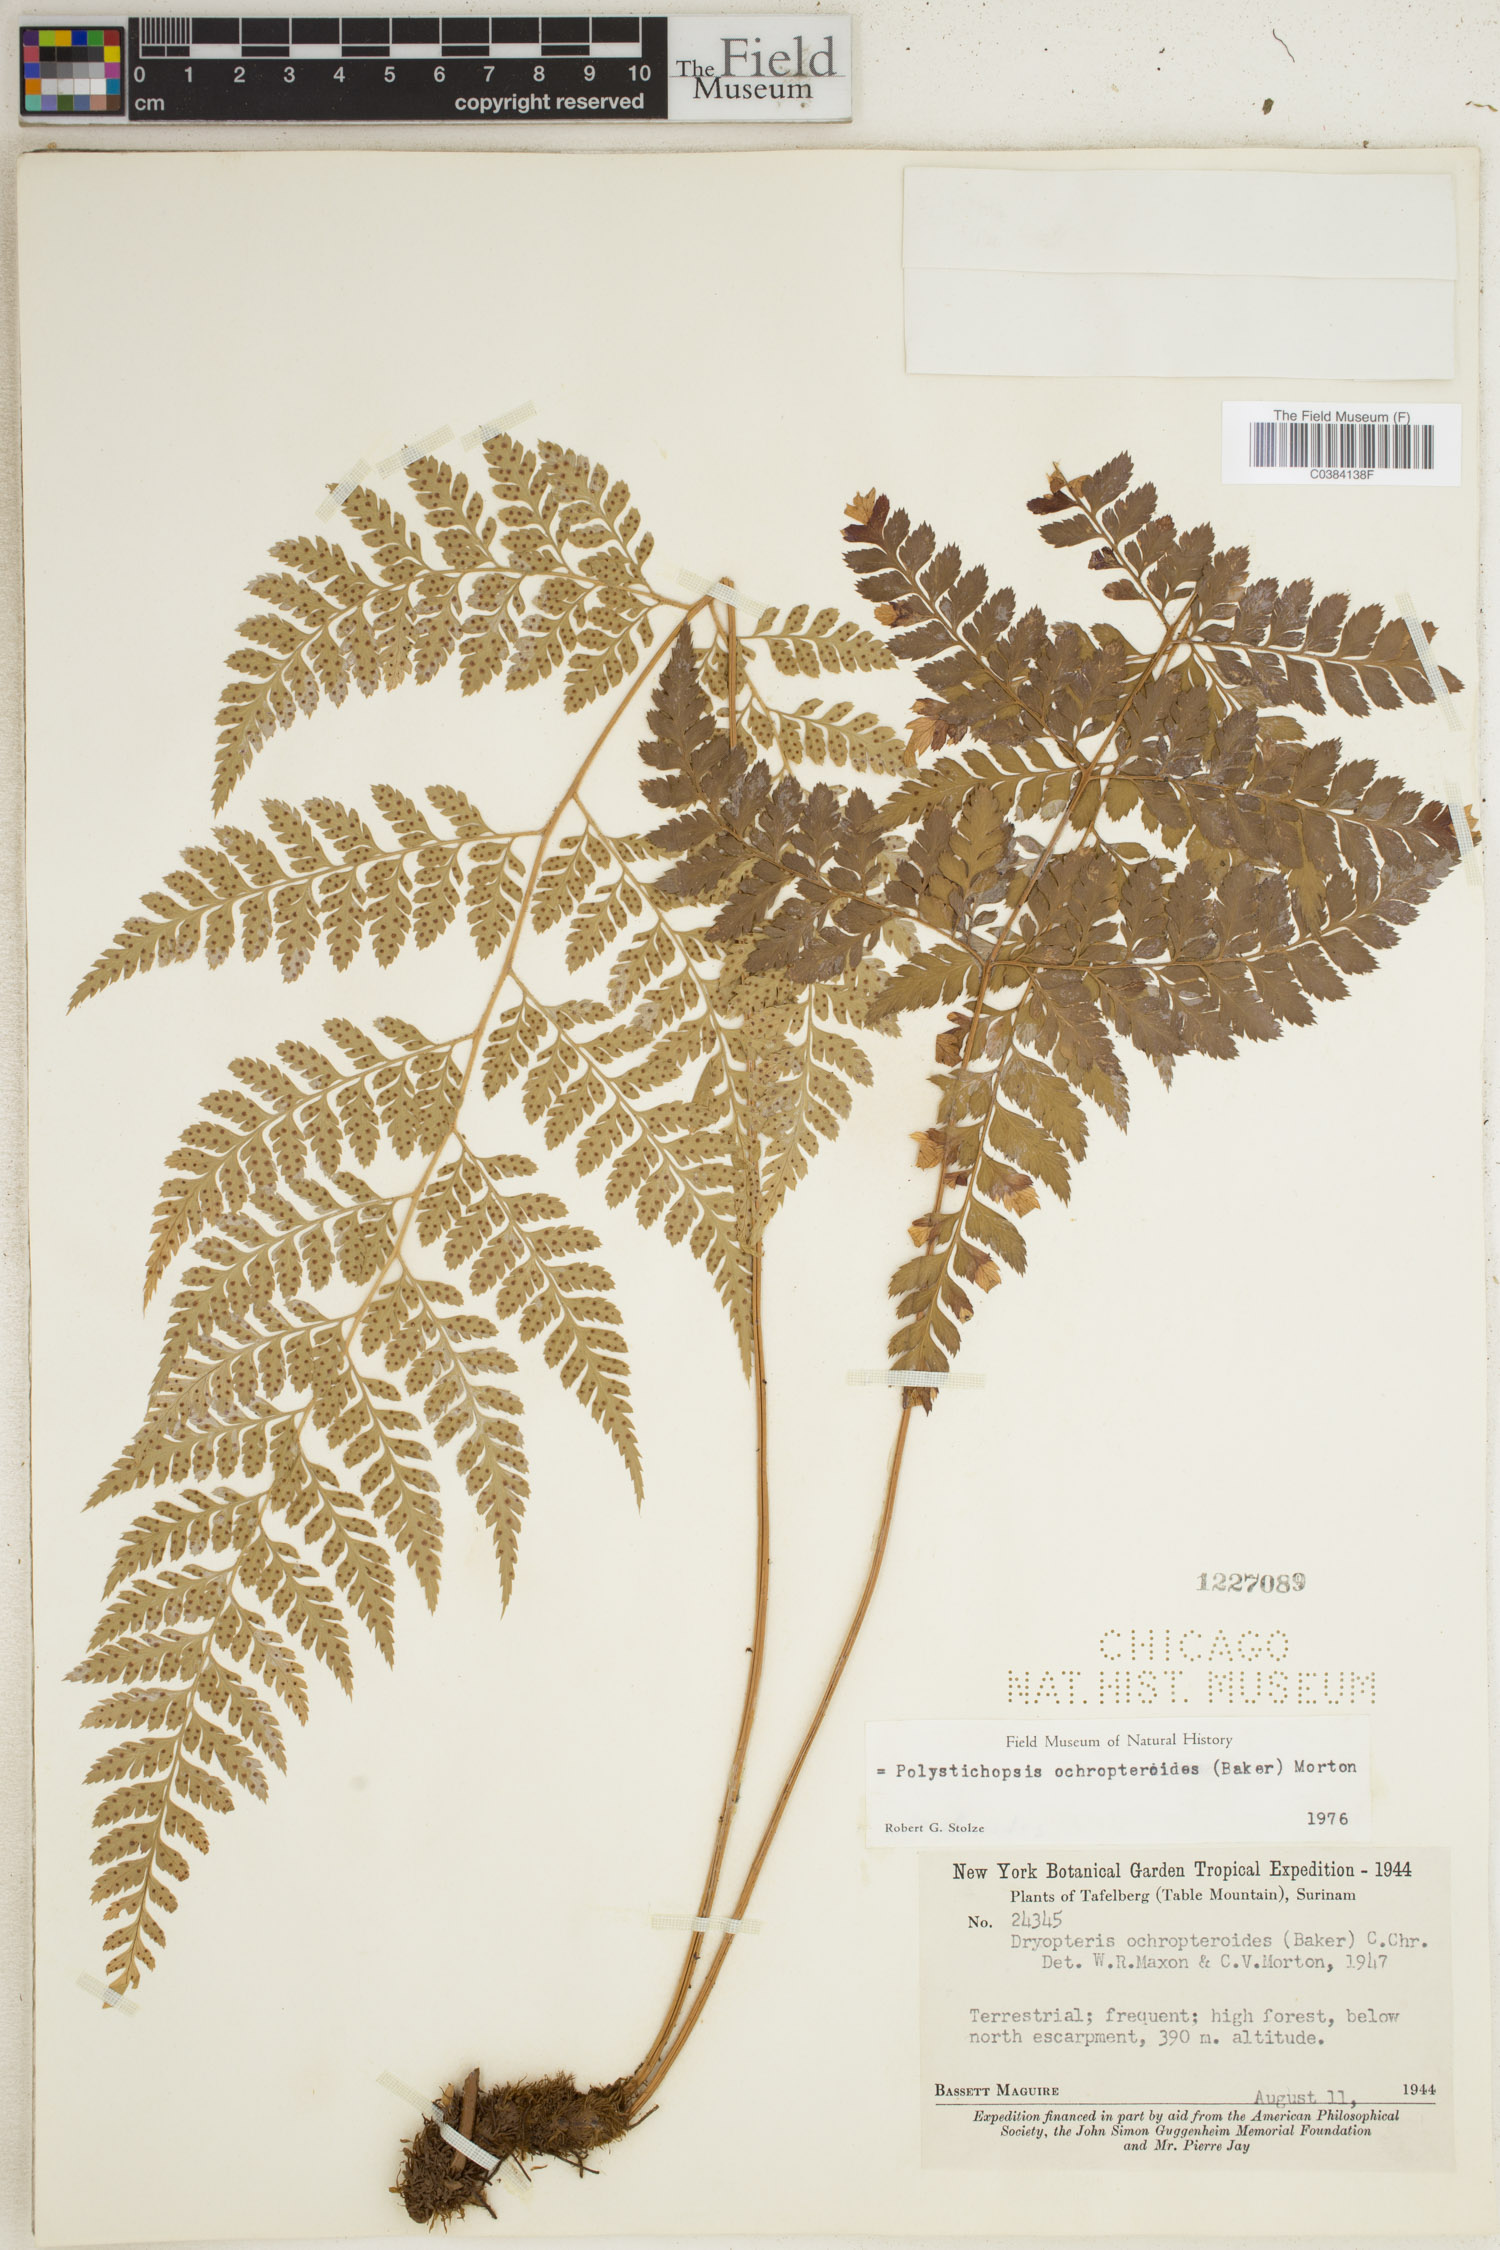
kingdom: Plantae
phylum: Tracheophyta
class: Polypodiopsida
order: Polypodiales
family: Dryopteridaceae
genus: Olfersia
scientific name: Olfersia ochropteroides
